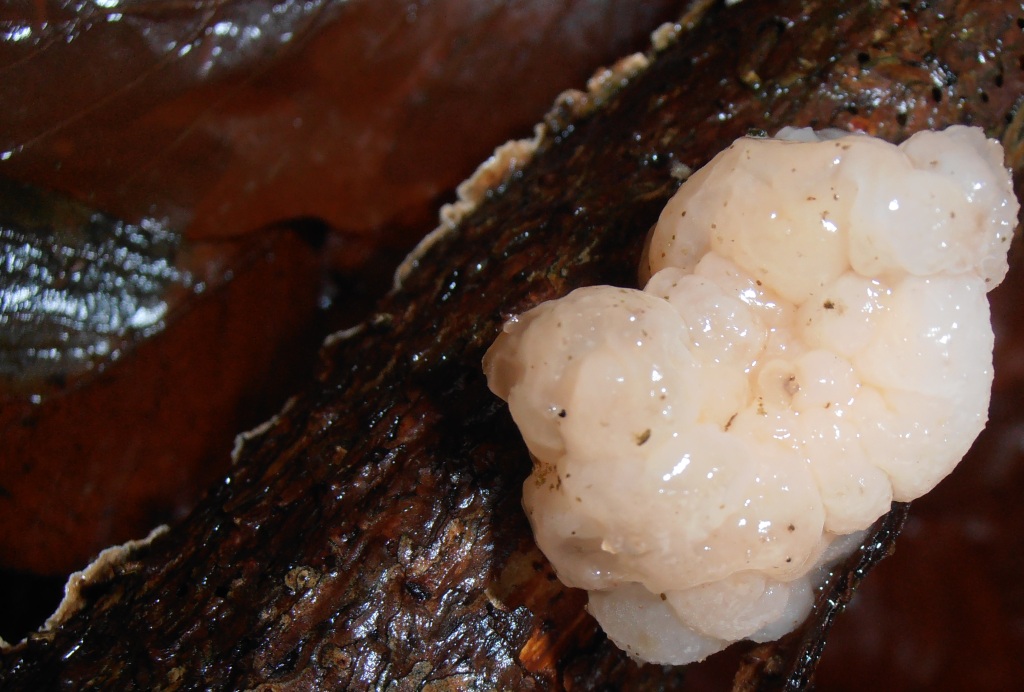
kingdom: Fungi
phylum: Basidiomycota
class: Tremellomycetes
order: Tremellales
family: Naemateliaceae
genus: Naematelia
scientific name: Naematelia encephala
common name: fyrre-bævresvamp
